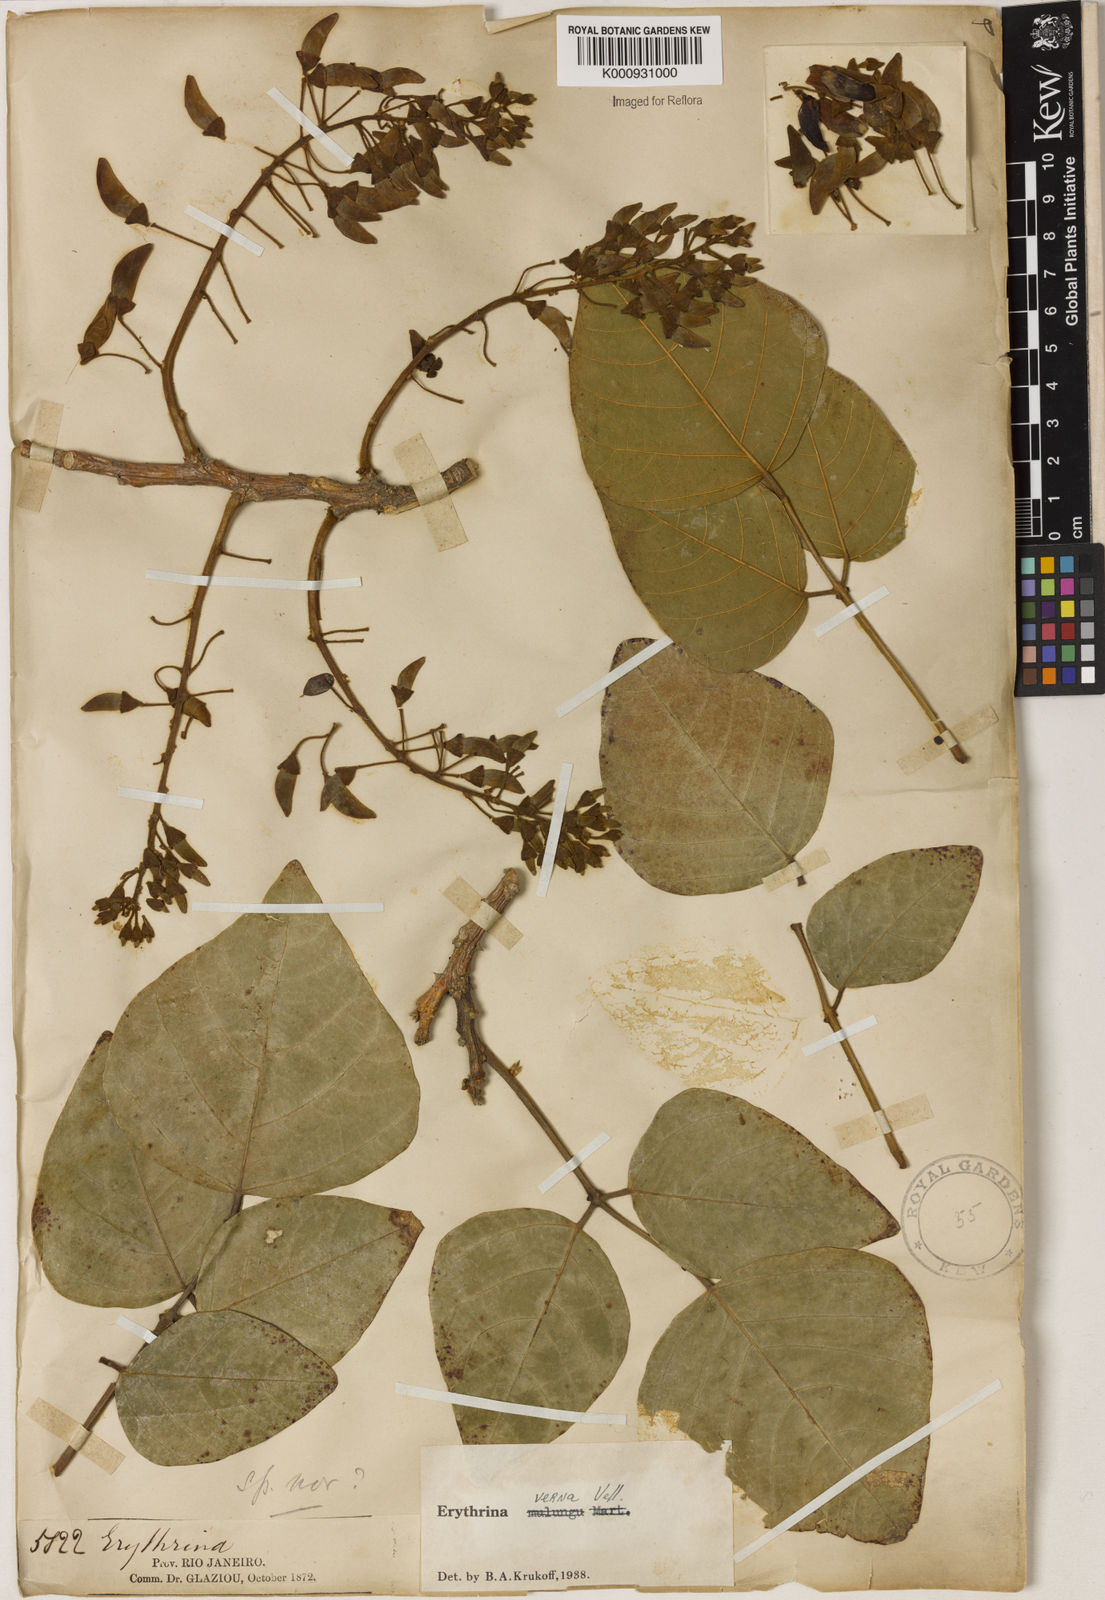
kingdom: Plantae
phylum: Tracheophyta
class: Magnoliopsida
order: Fabales
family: Fabaceae
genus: Erythrina
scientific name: Erythrina verna
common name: Mulungú
